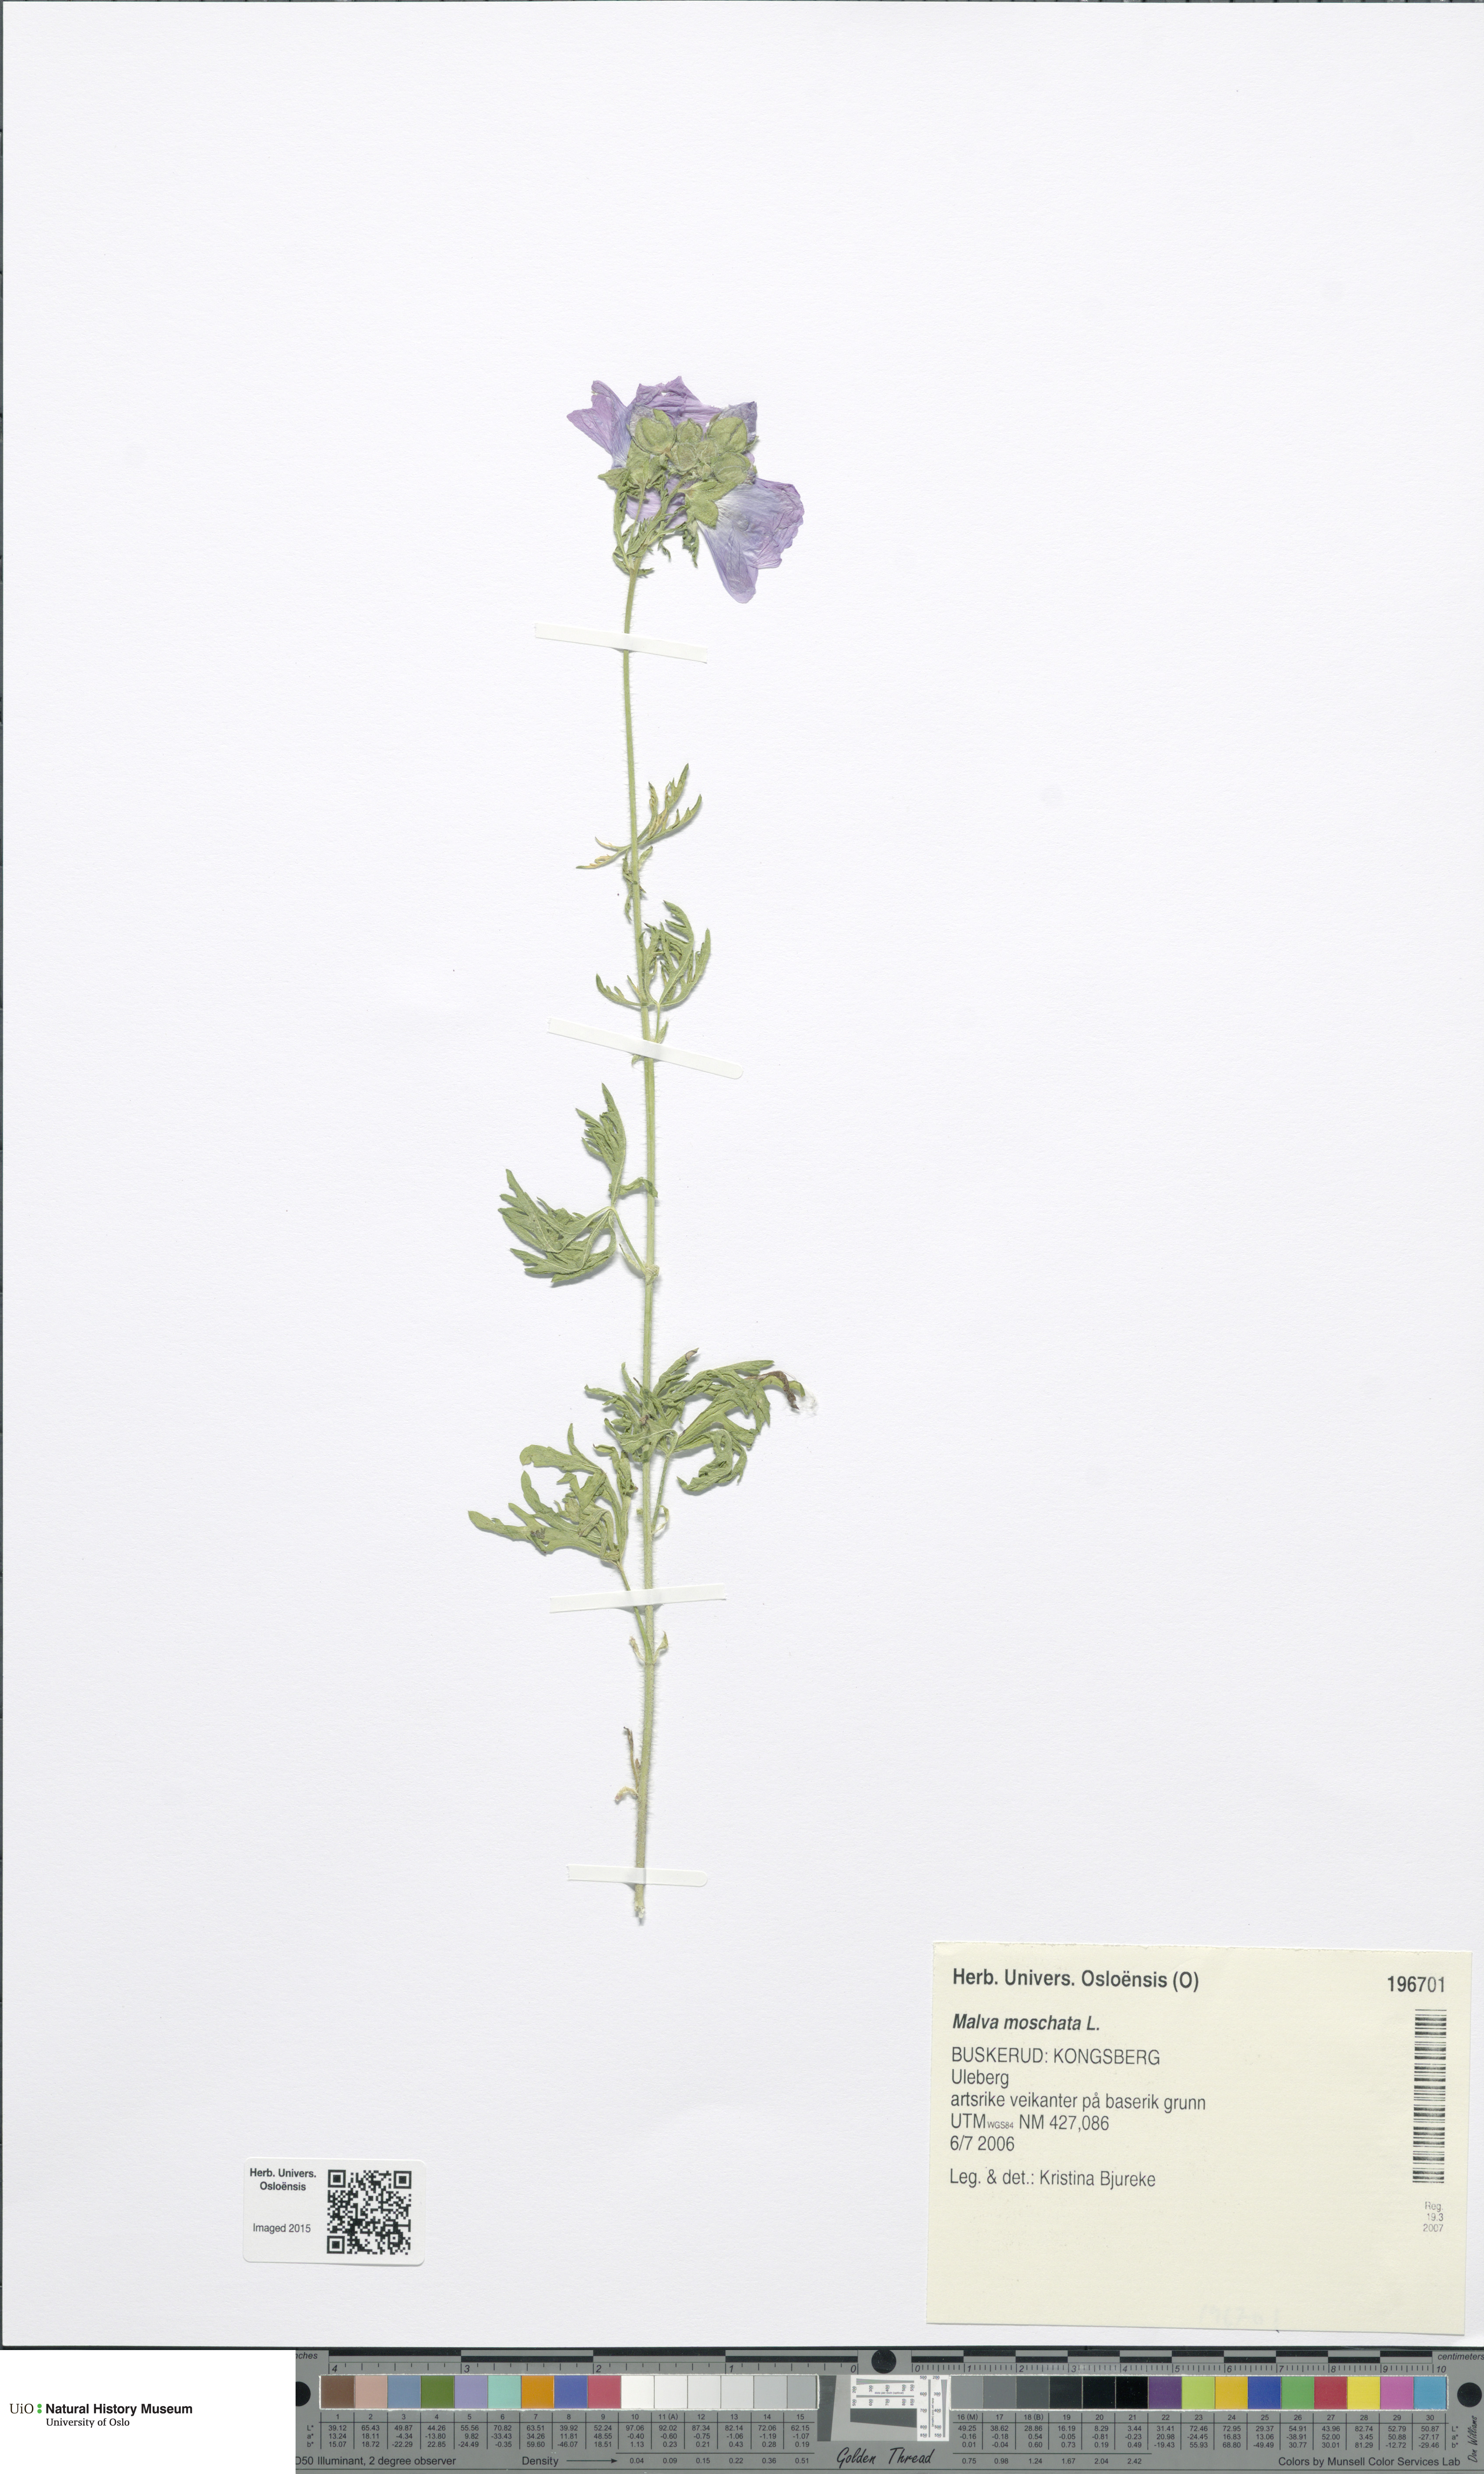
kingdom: Plantae
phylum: Tracheophyta
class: Magnoliopsida
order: Malvales
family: Malvaceae
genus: Malva
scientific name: Malva moschata
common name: Musk mallow
